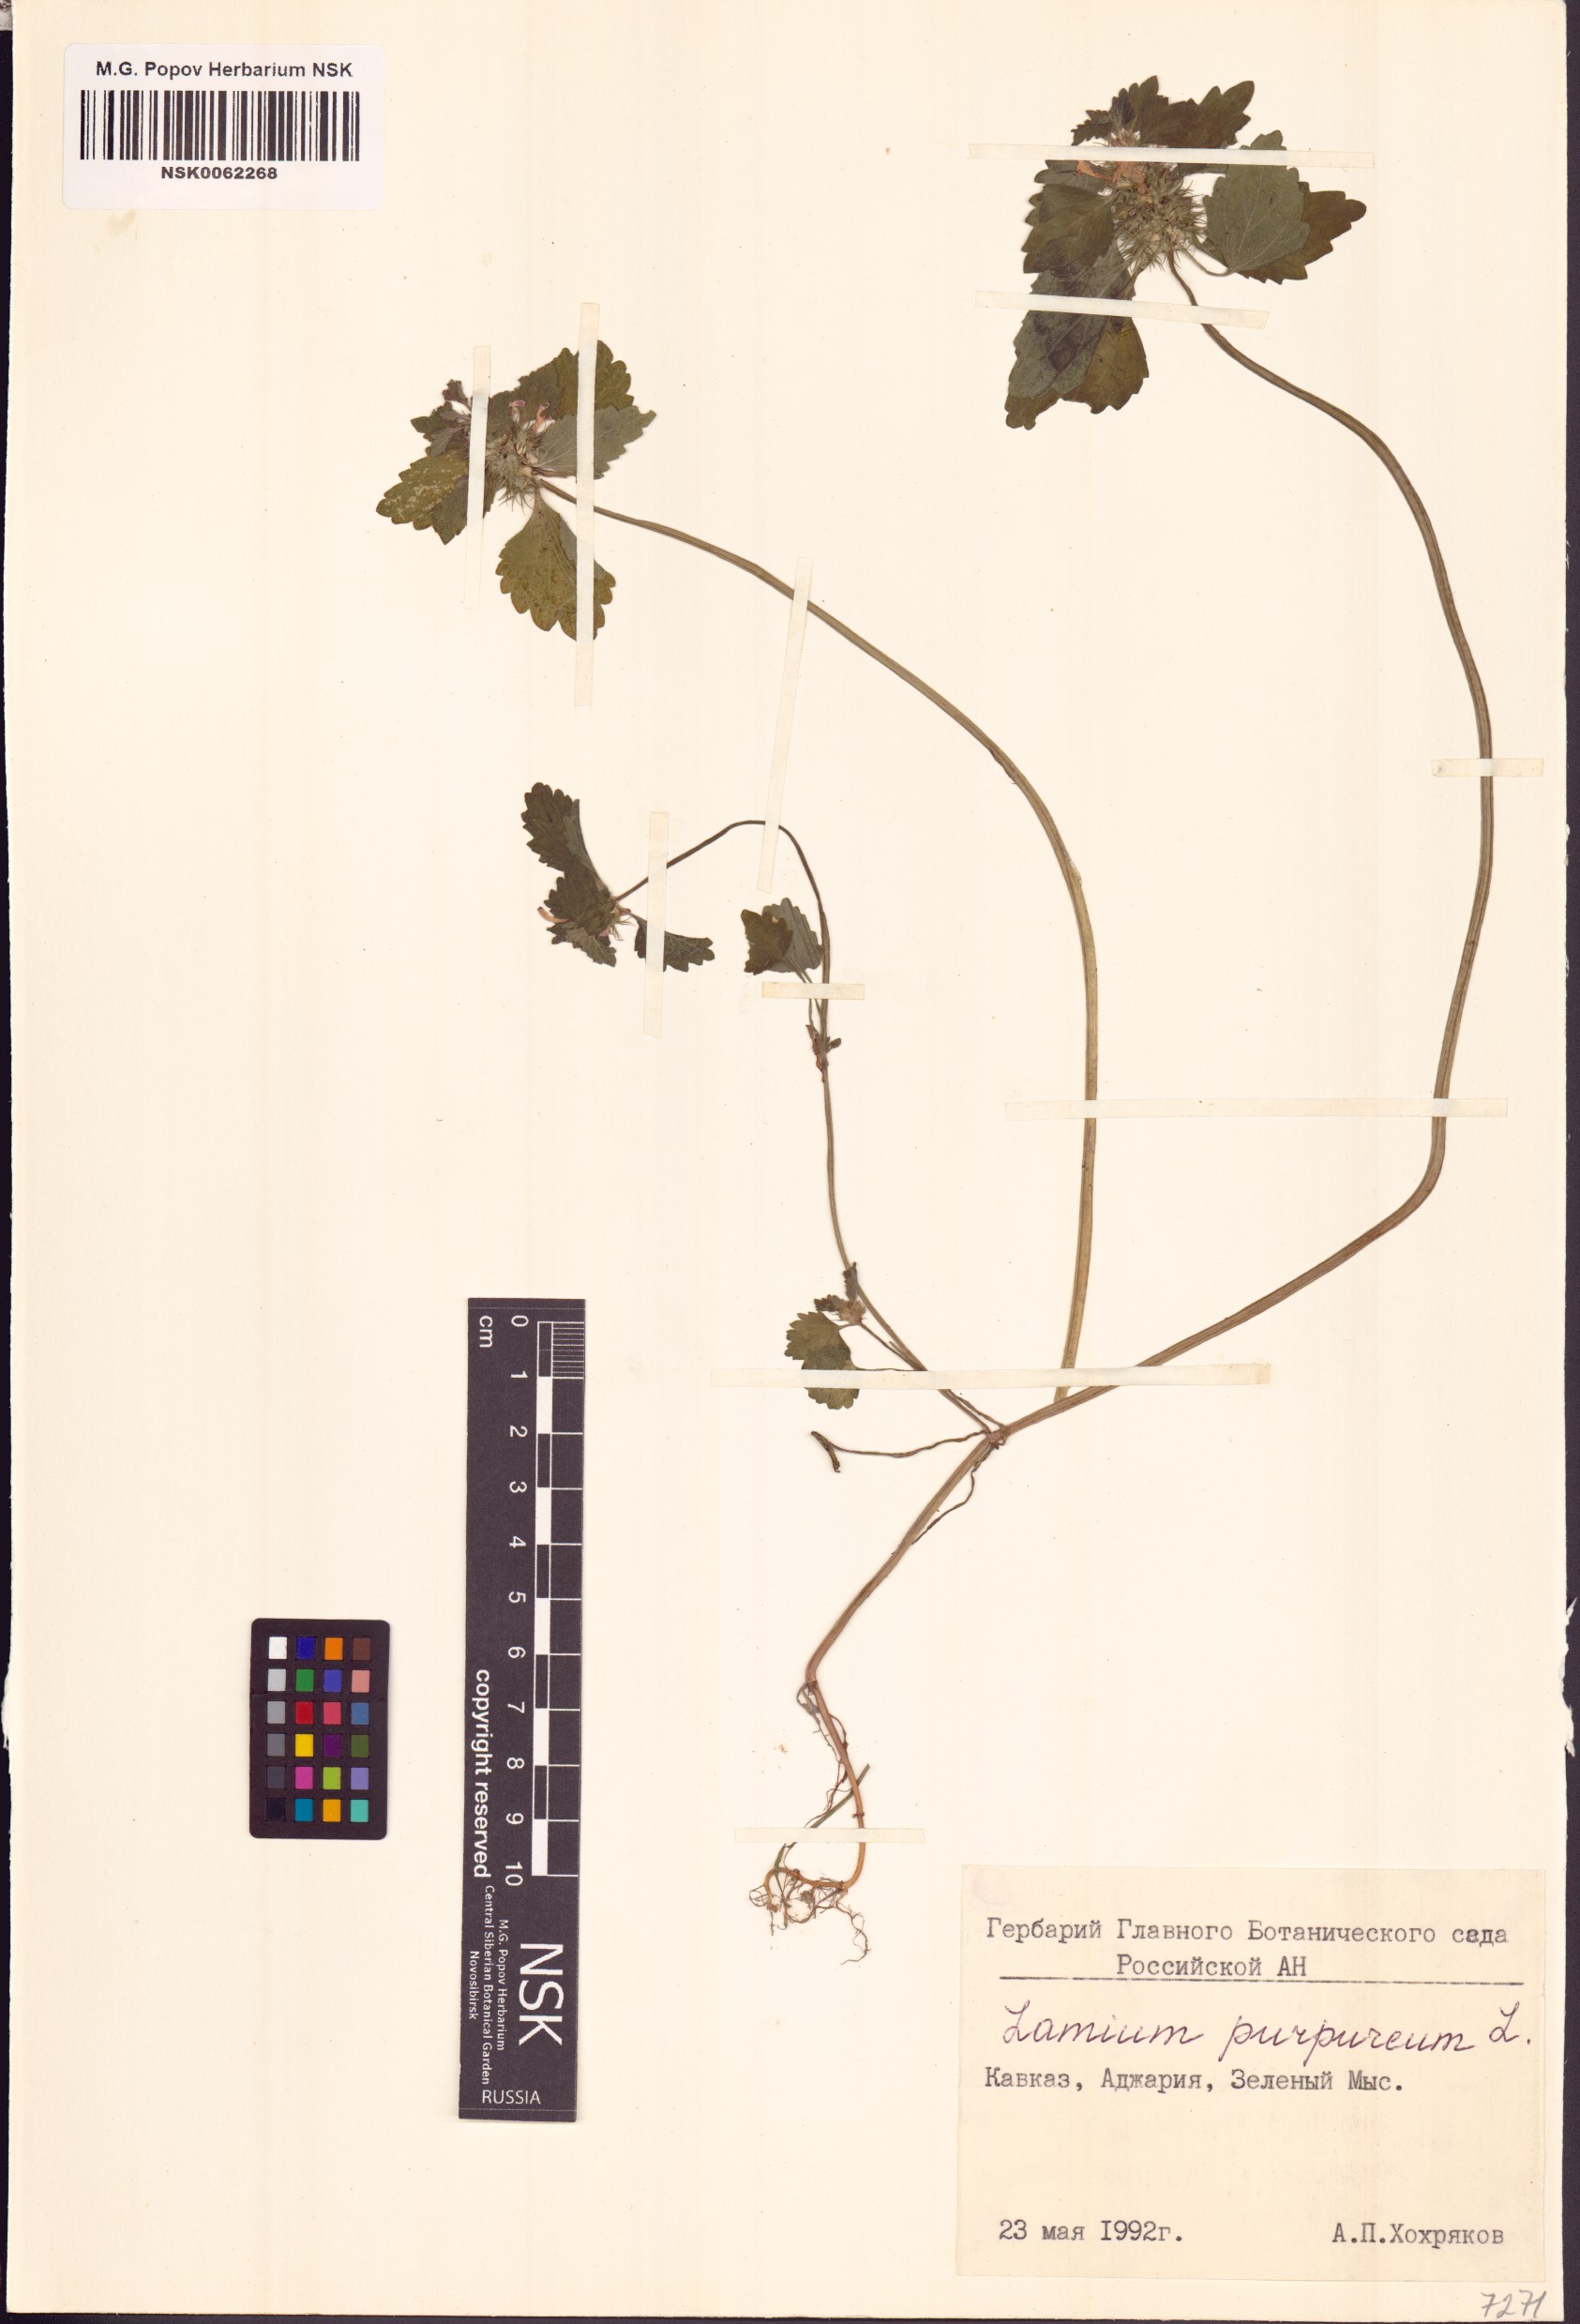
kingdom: Plantae
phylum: Tracheophyta
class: Magnoliopsida
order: Lamiales
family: Lamiaceae
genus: Lamium
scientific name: Lamium purpureum
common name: Red dead-nettle
